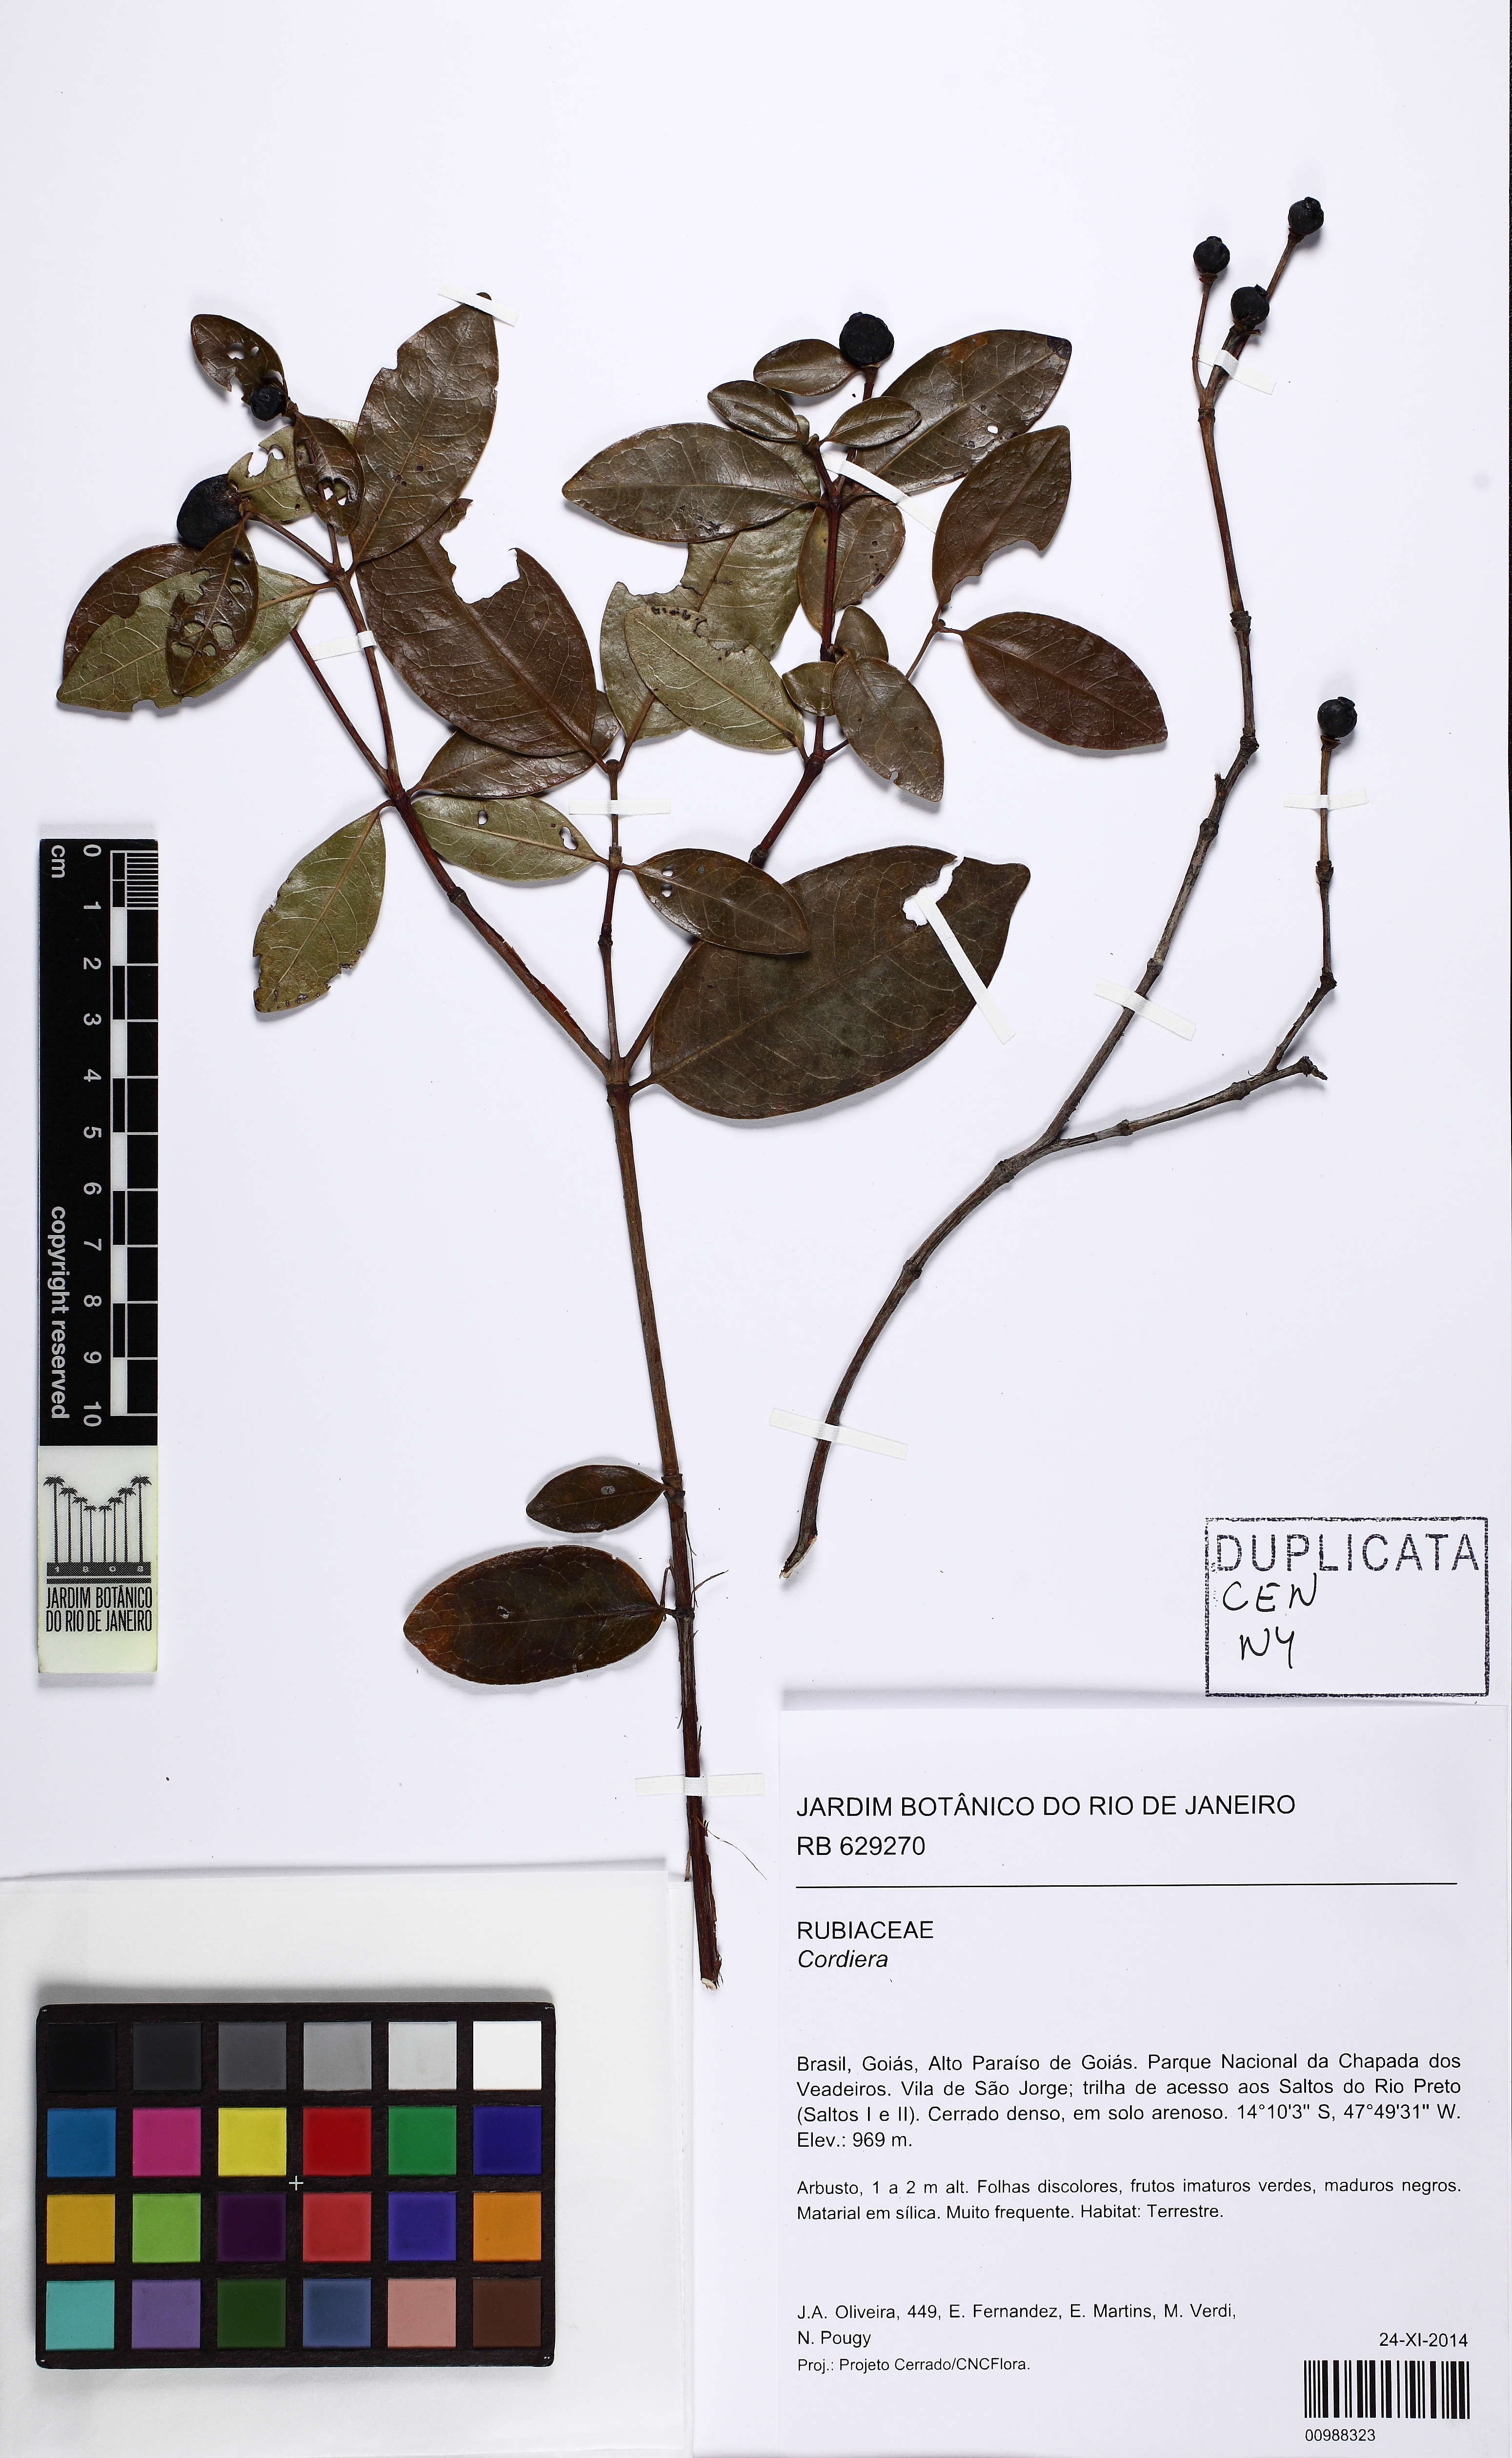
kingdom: Plantae
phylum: Tracheophyta
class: Magnoliopsida
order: Gentianales
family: Rubiaceae
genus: Cordiera
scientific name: Cordiera
